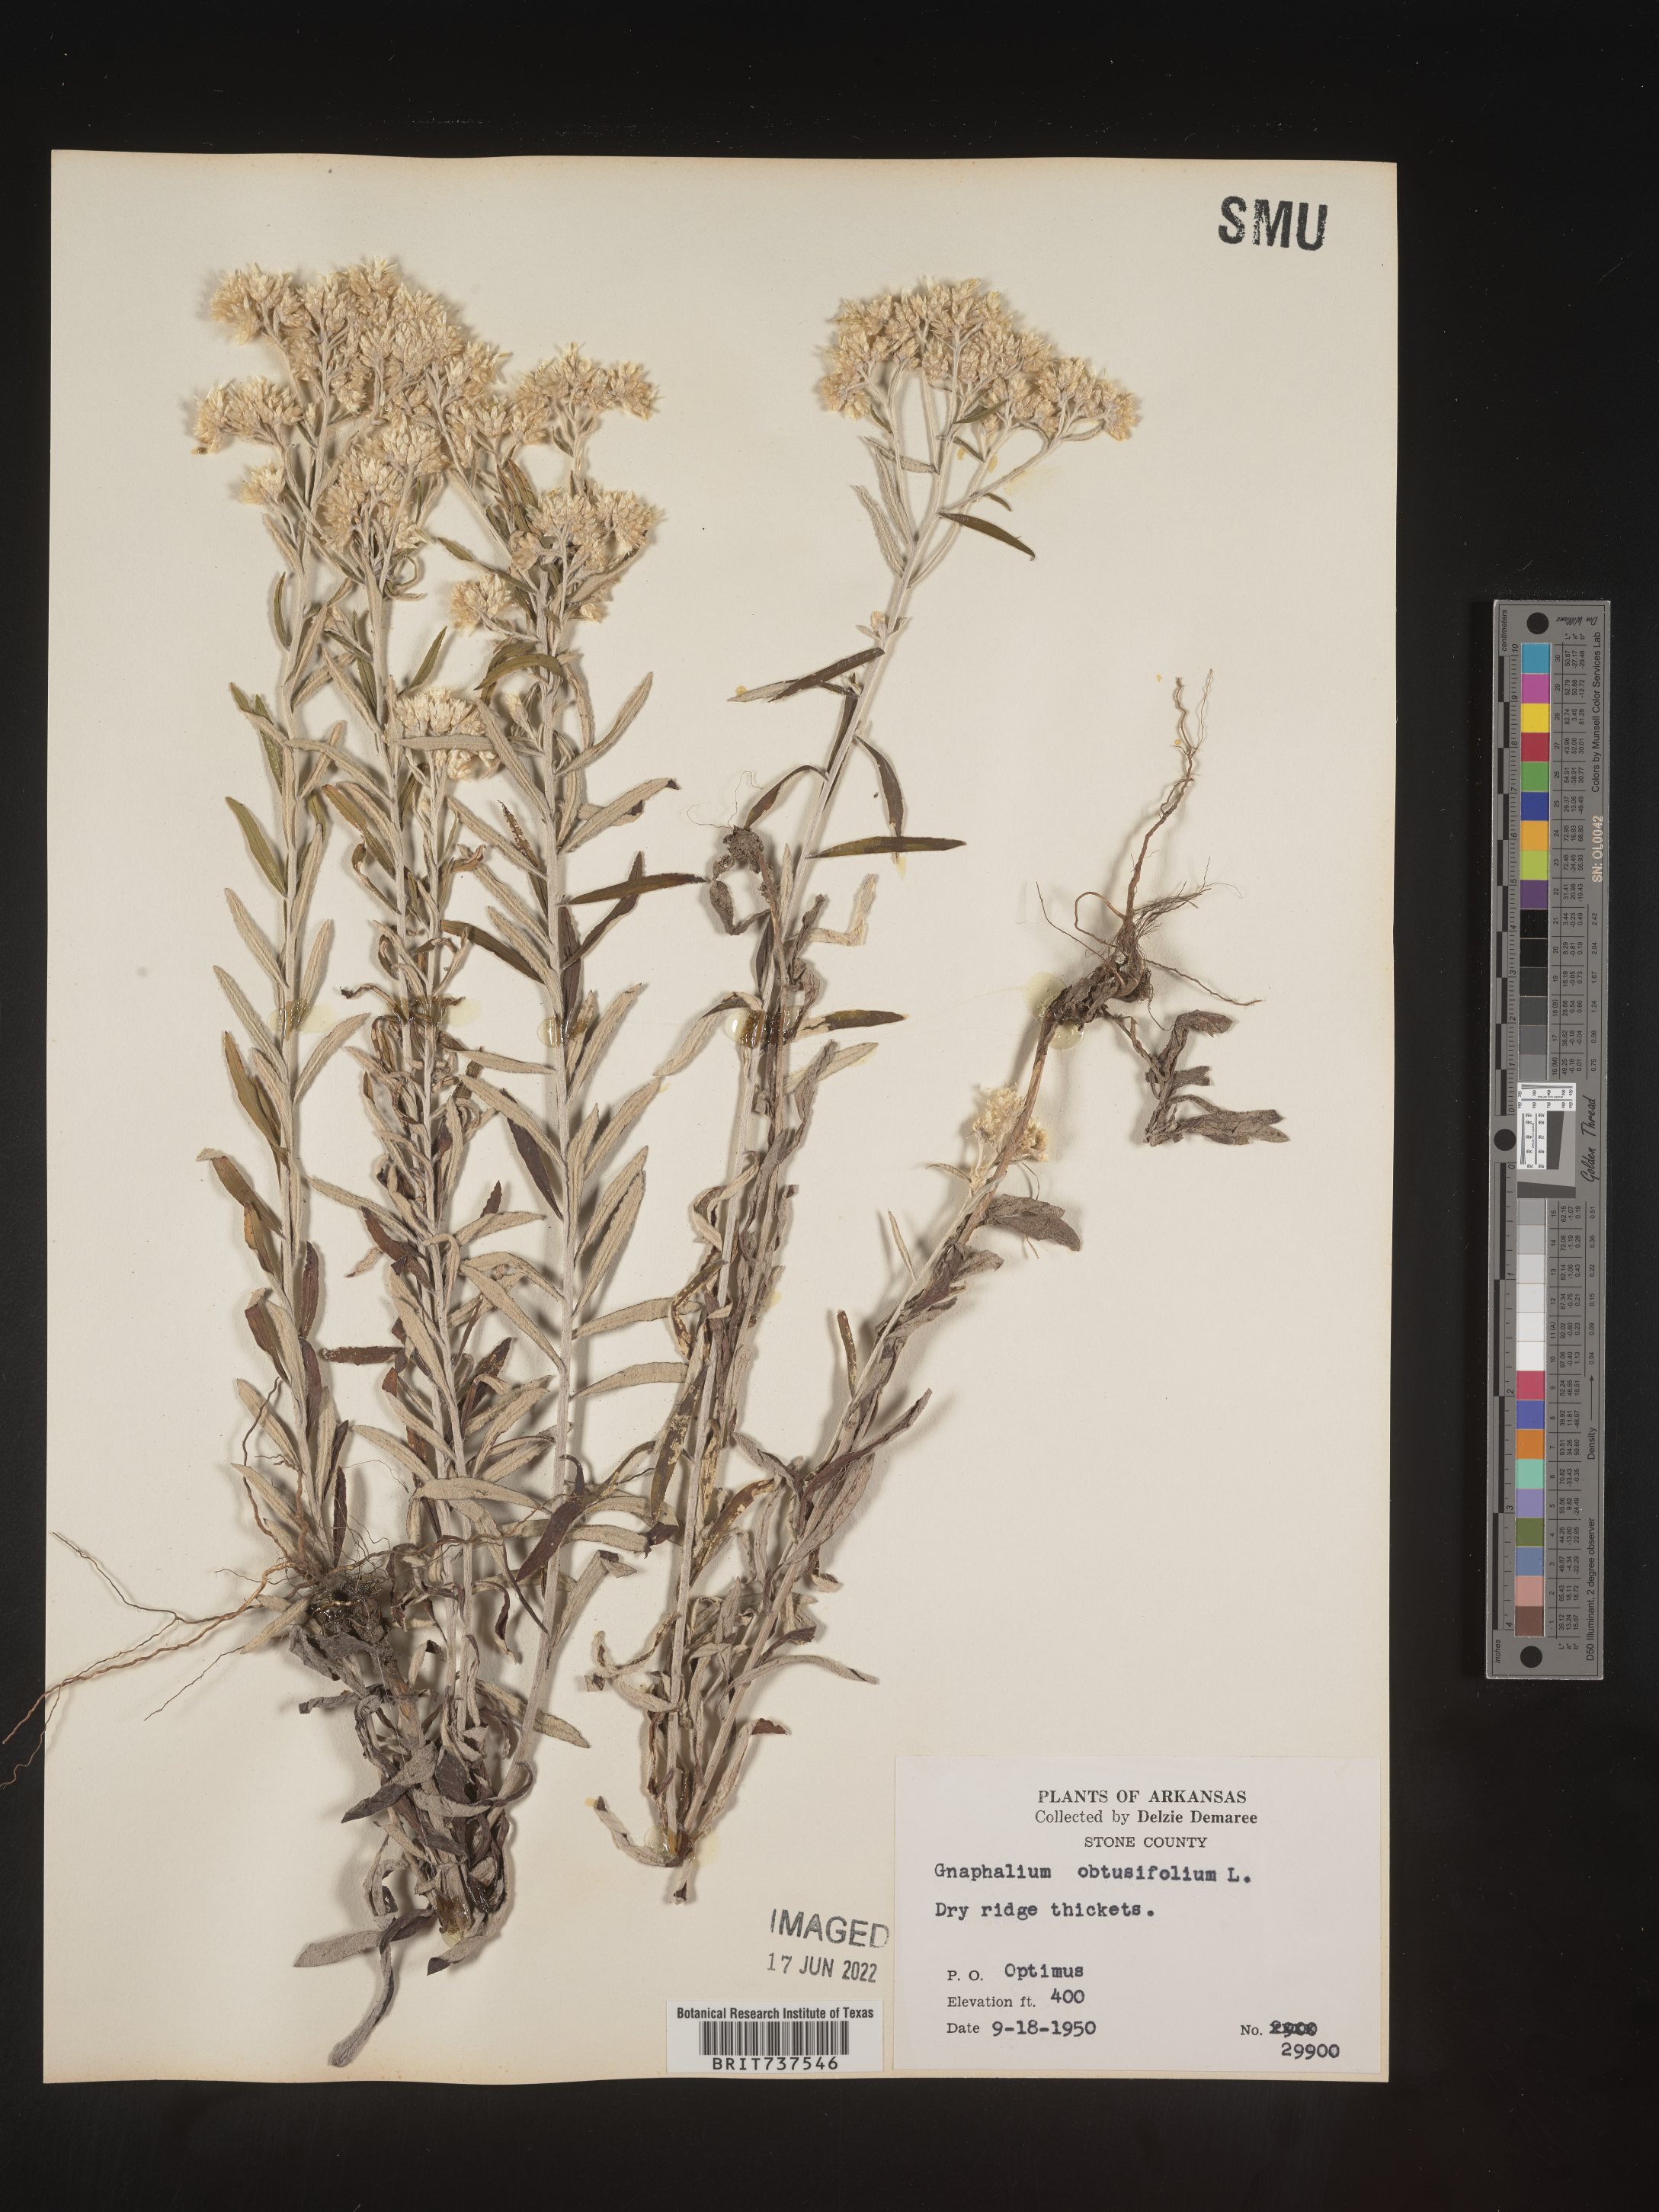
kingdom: Plantae
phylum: Tracheophyta
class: Magnoliopsida
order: Asterales
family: Asteraceae
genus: Pseudognaphalium
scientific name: Pseudognaphalium obtusifolium
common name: Eastern rabbit-tobacco
